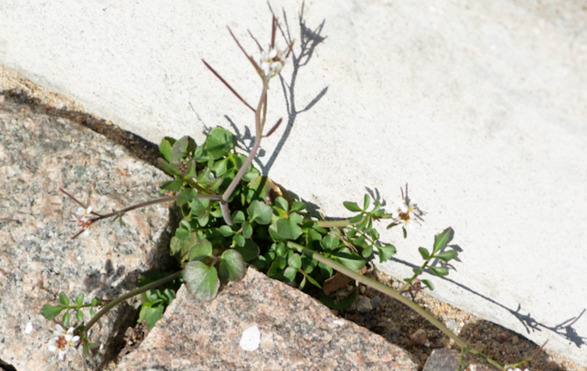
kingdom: Plantae
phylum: Tracheophyta
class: Magnoliopsida
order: Brassicales
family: Brassicaceae
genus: Cardamine
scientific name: Cardamine hirsuta
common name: Roset-springklap
